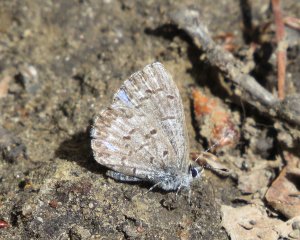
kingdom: Animalia
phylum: Arthropoda
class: Insecta
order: Lepidoptera
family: Lycaenidae
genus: Celastrina
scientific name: Celastrina lucia
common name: Northern Spring Azure
